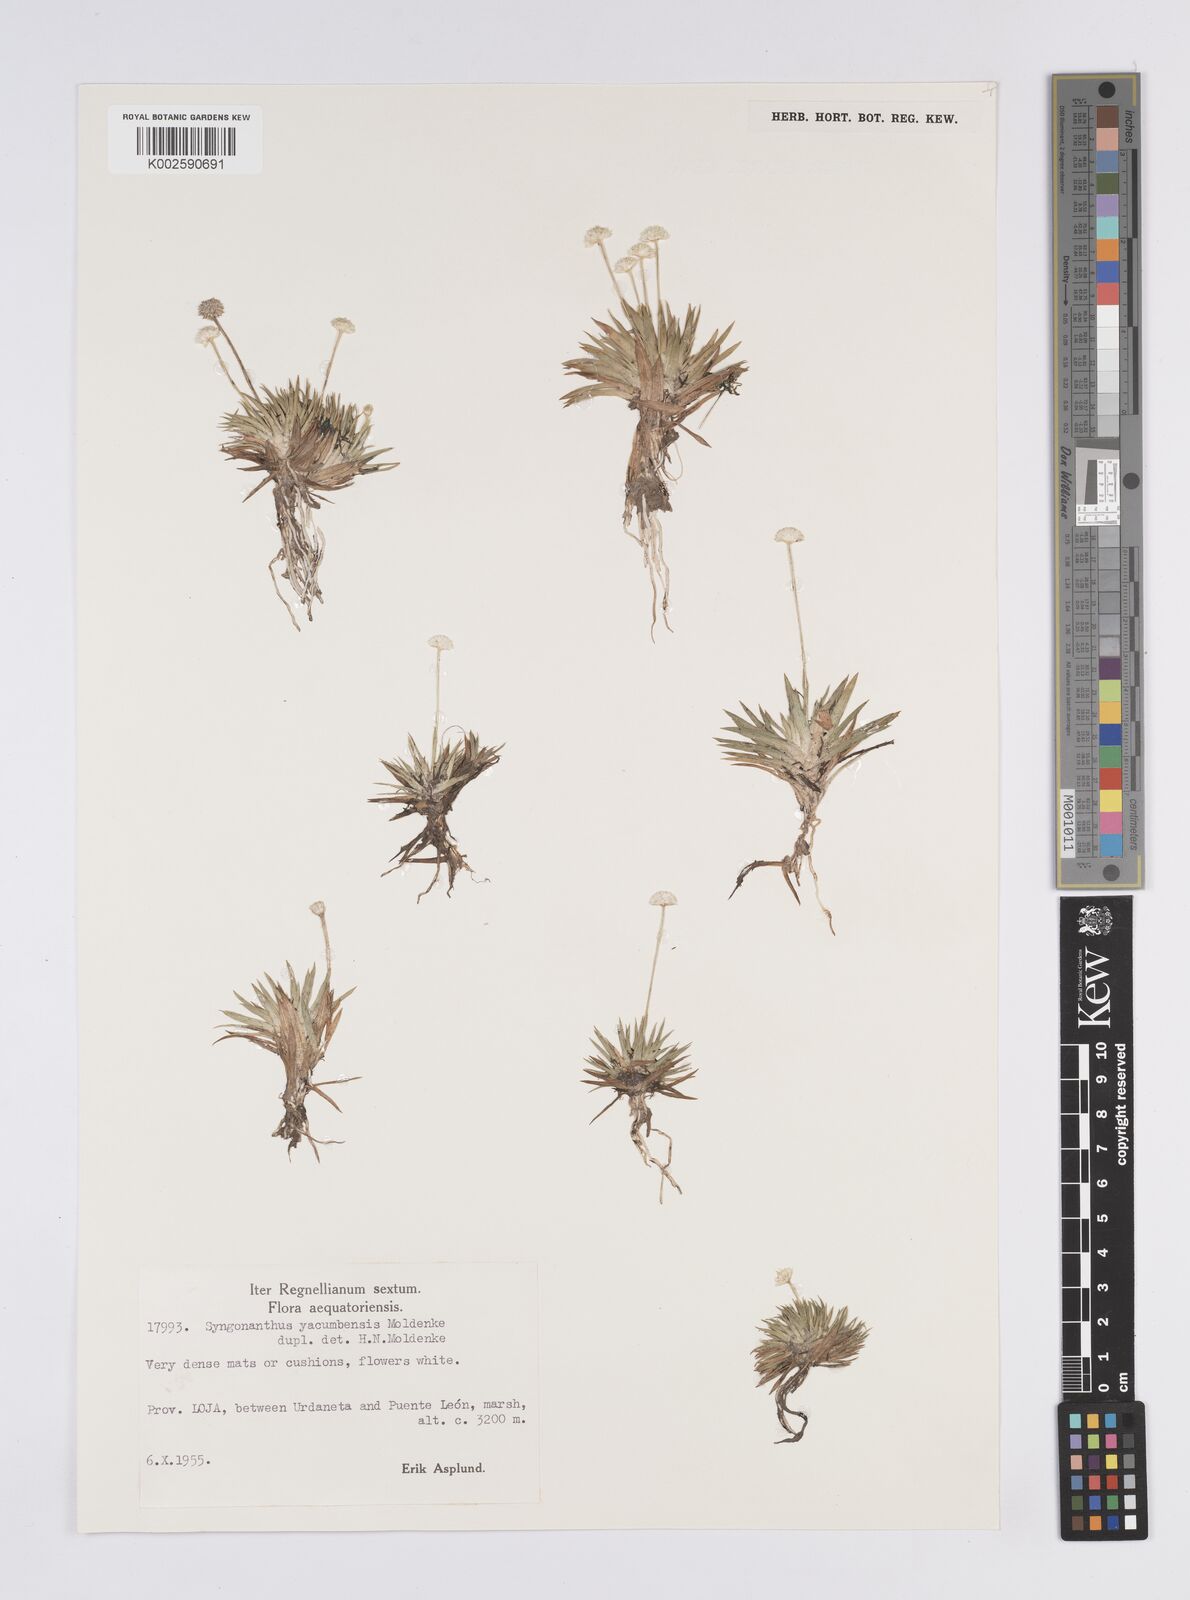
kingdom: Plantae
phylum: Tracheophyta
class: Liliopsida
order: Poales
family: Eriocaulaceae
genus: Syngonanthus
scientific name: Syngonanthus peruvianus
